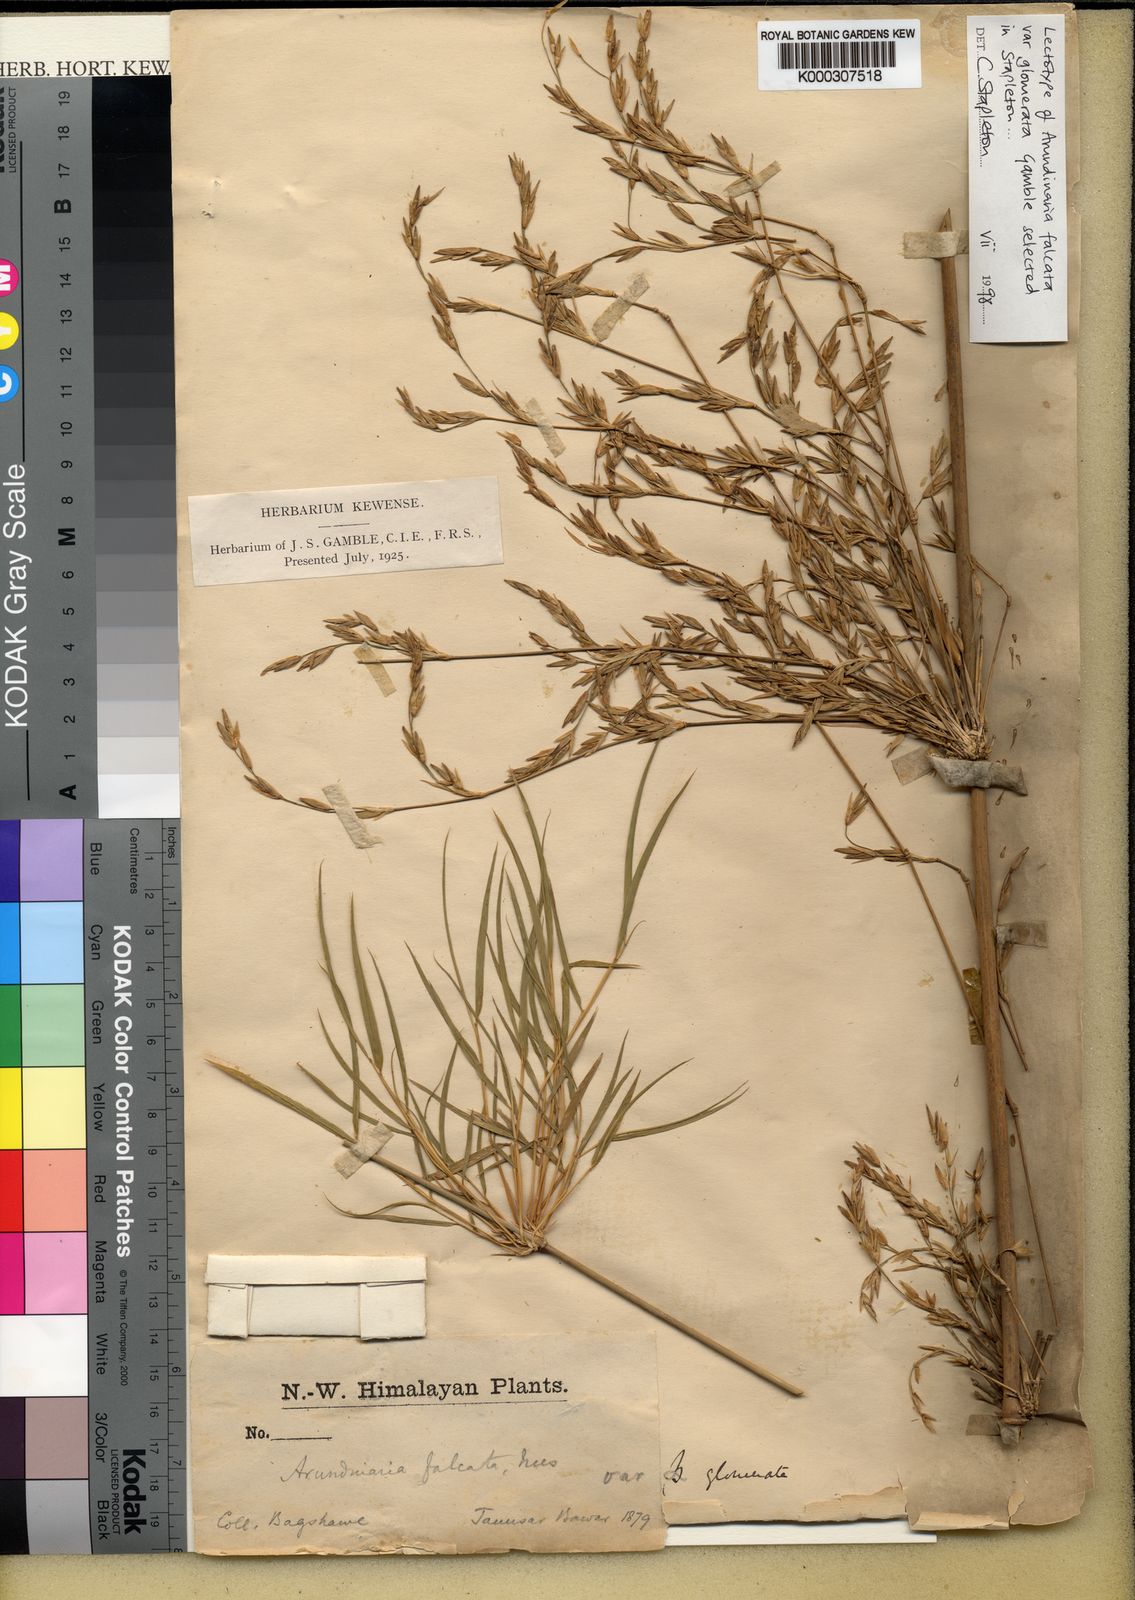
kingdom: Plantae
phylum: Tracheophyta
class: Liliopsida
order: Poales
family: Poaceae
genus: Drepanostachyum
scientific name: Drepanostachyum falcatum
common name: Himalayan bamboo
